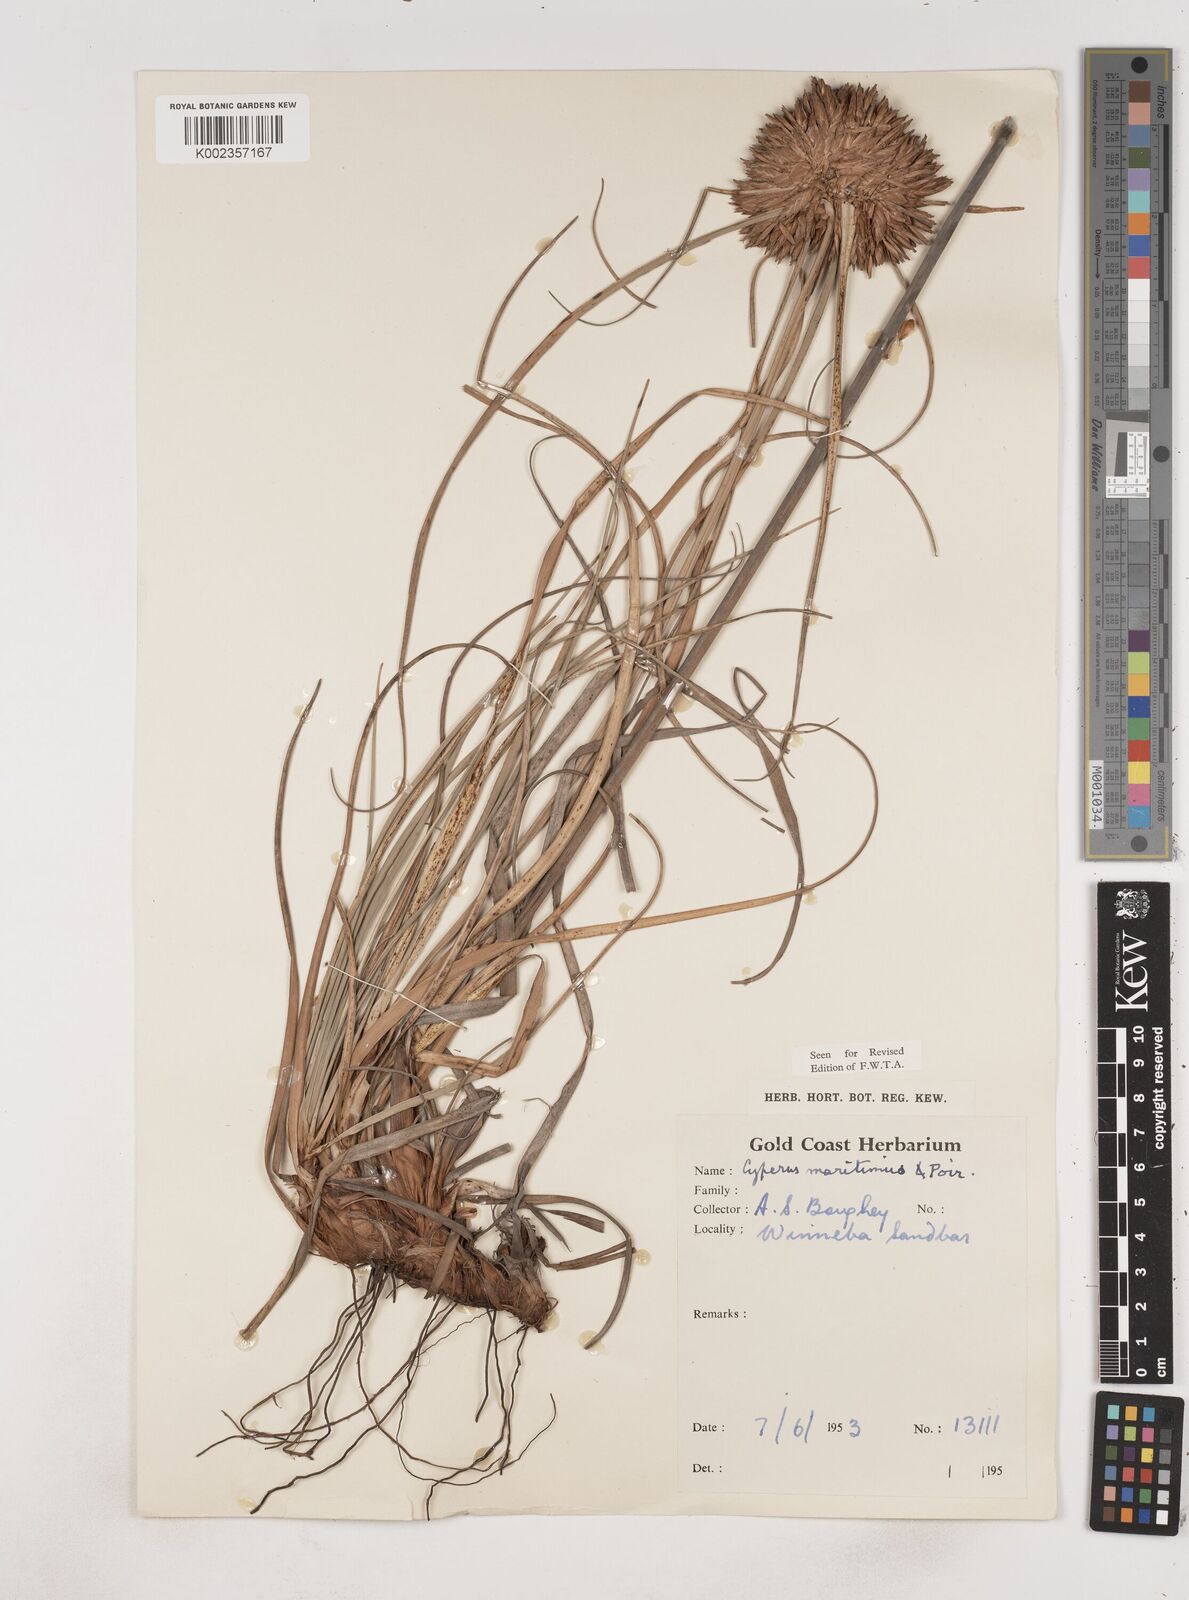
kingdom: Plantae
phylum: Tracheophyta
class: Liliopsida
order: Poales
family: Cyperaceae
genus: Cyperus
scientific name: Cyperus crassipes
